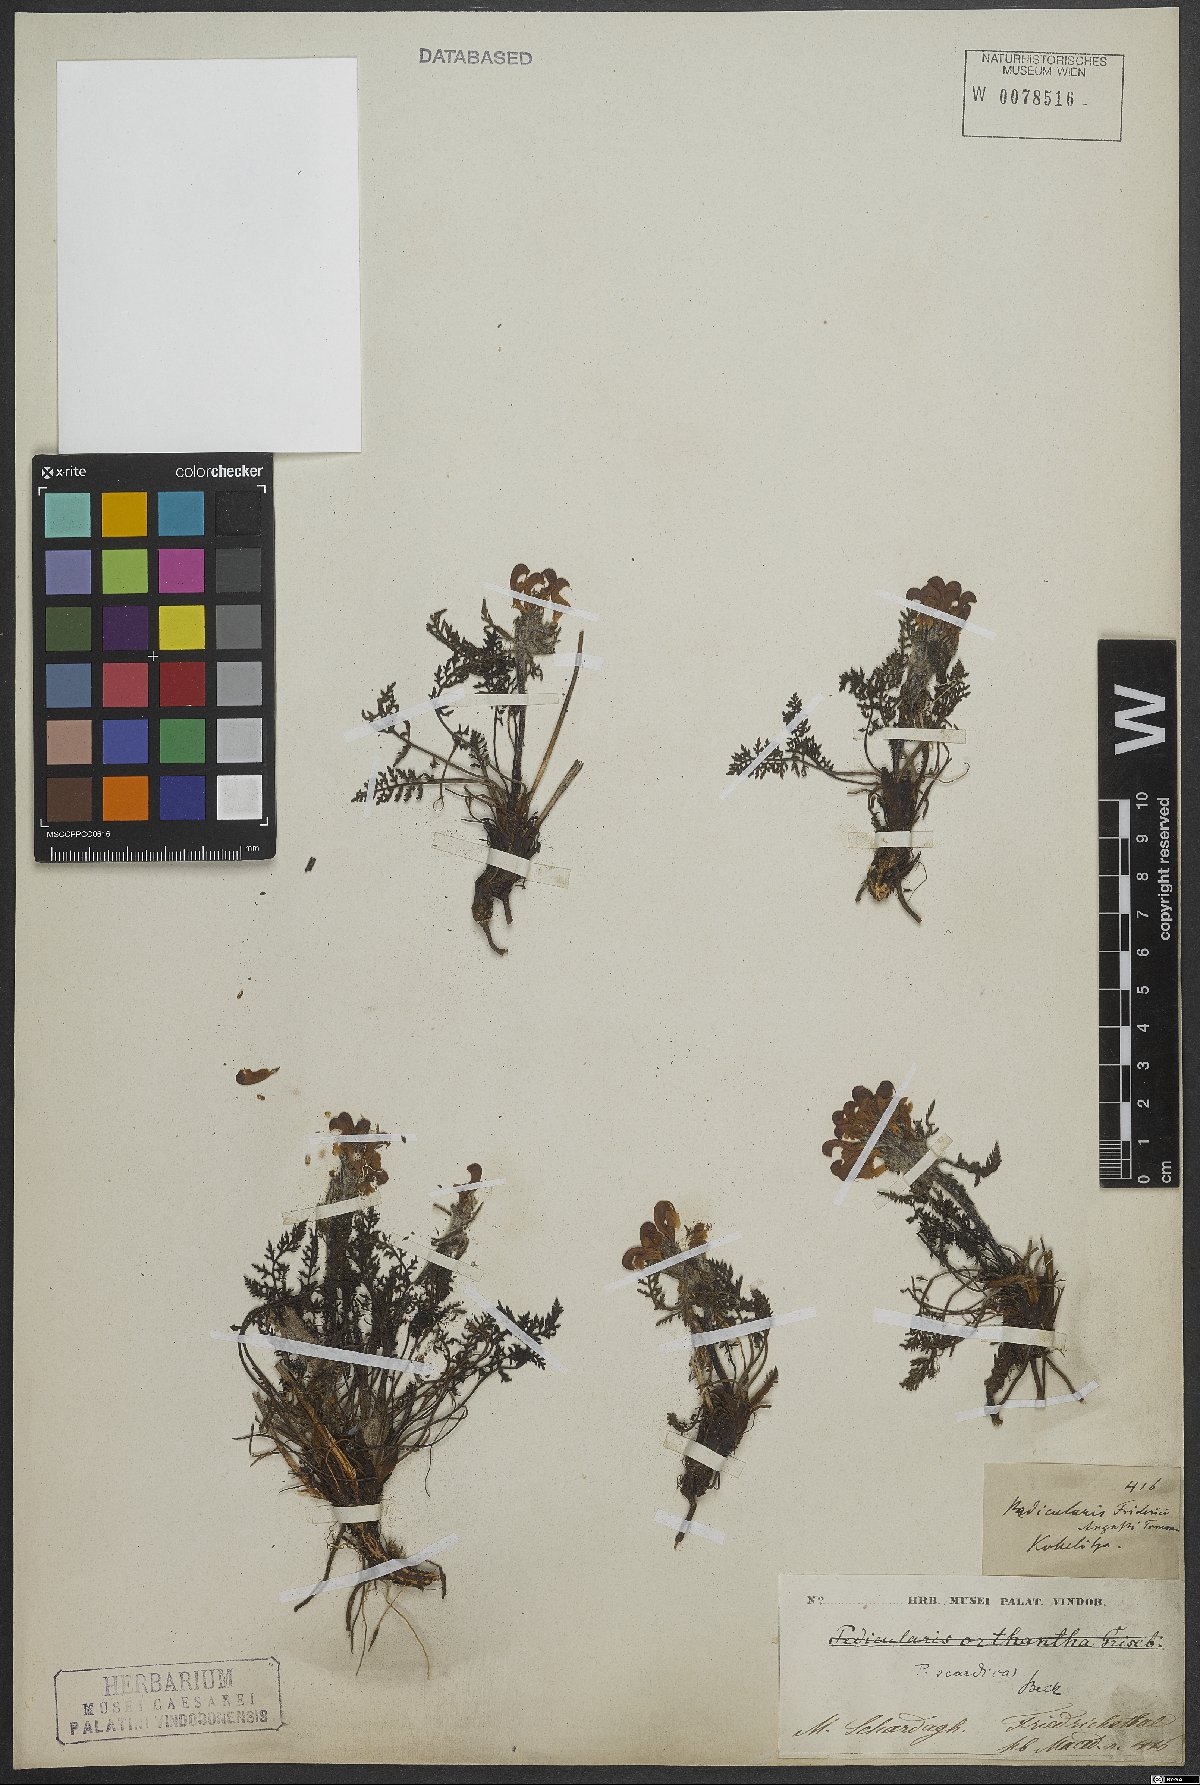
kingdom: Plantae
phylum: Tracheophyta
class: Magnoliopsida
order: Lamiales
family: Orobanchaceae
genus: Pedicularis
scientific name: Pedicularis friderici-augusti
